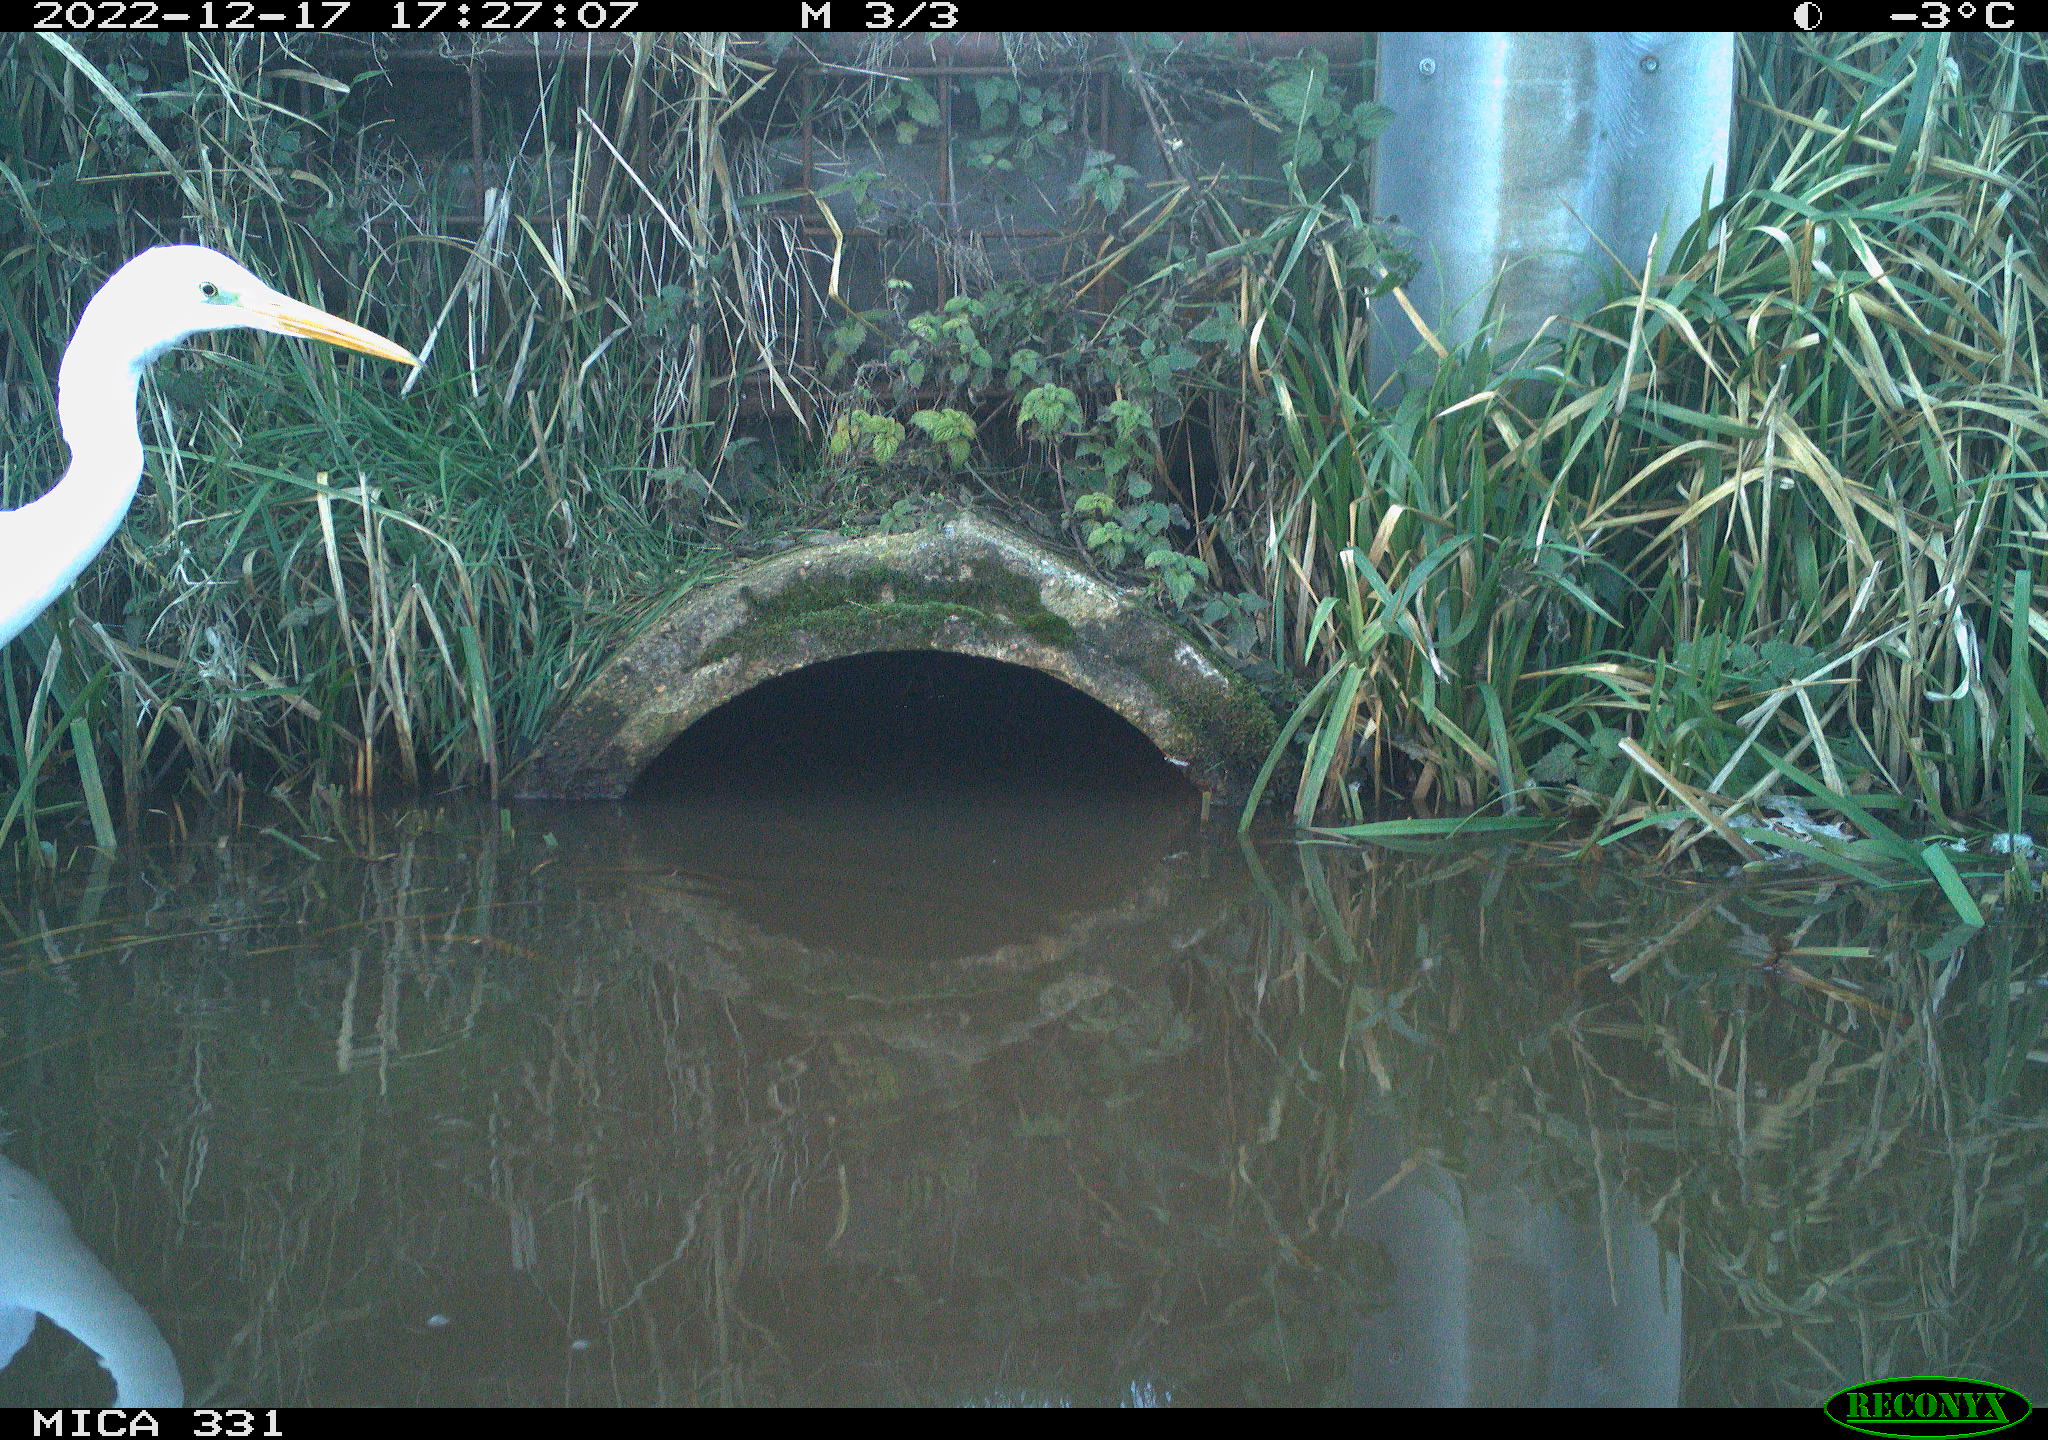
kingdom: Animalia
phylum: Chordata
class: Aves
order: Pelecaniformes
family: Ardeidae
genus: Ardea
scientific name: Ardea alba
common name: Great egret
